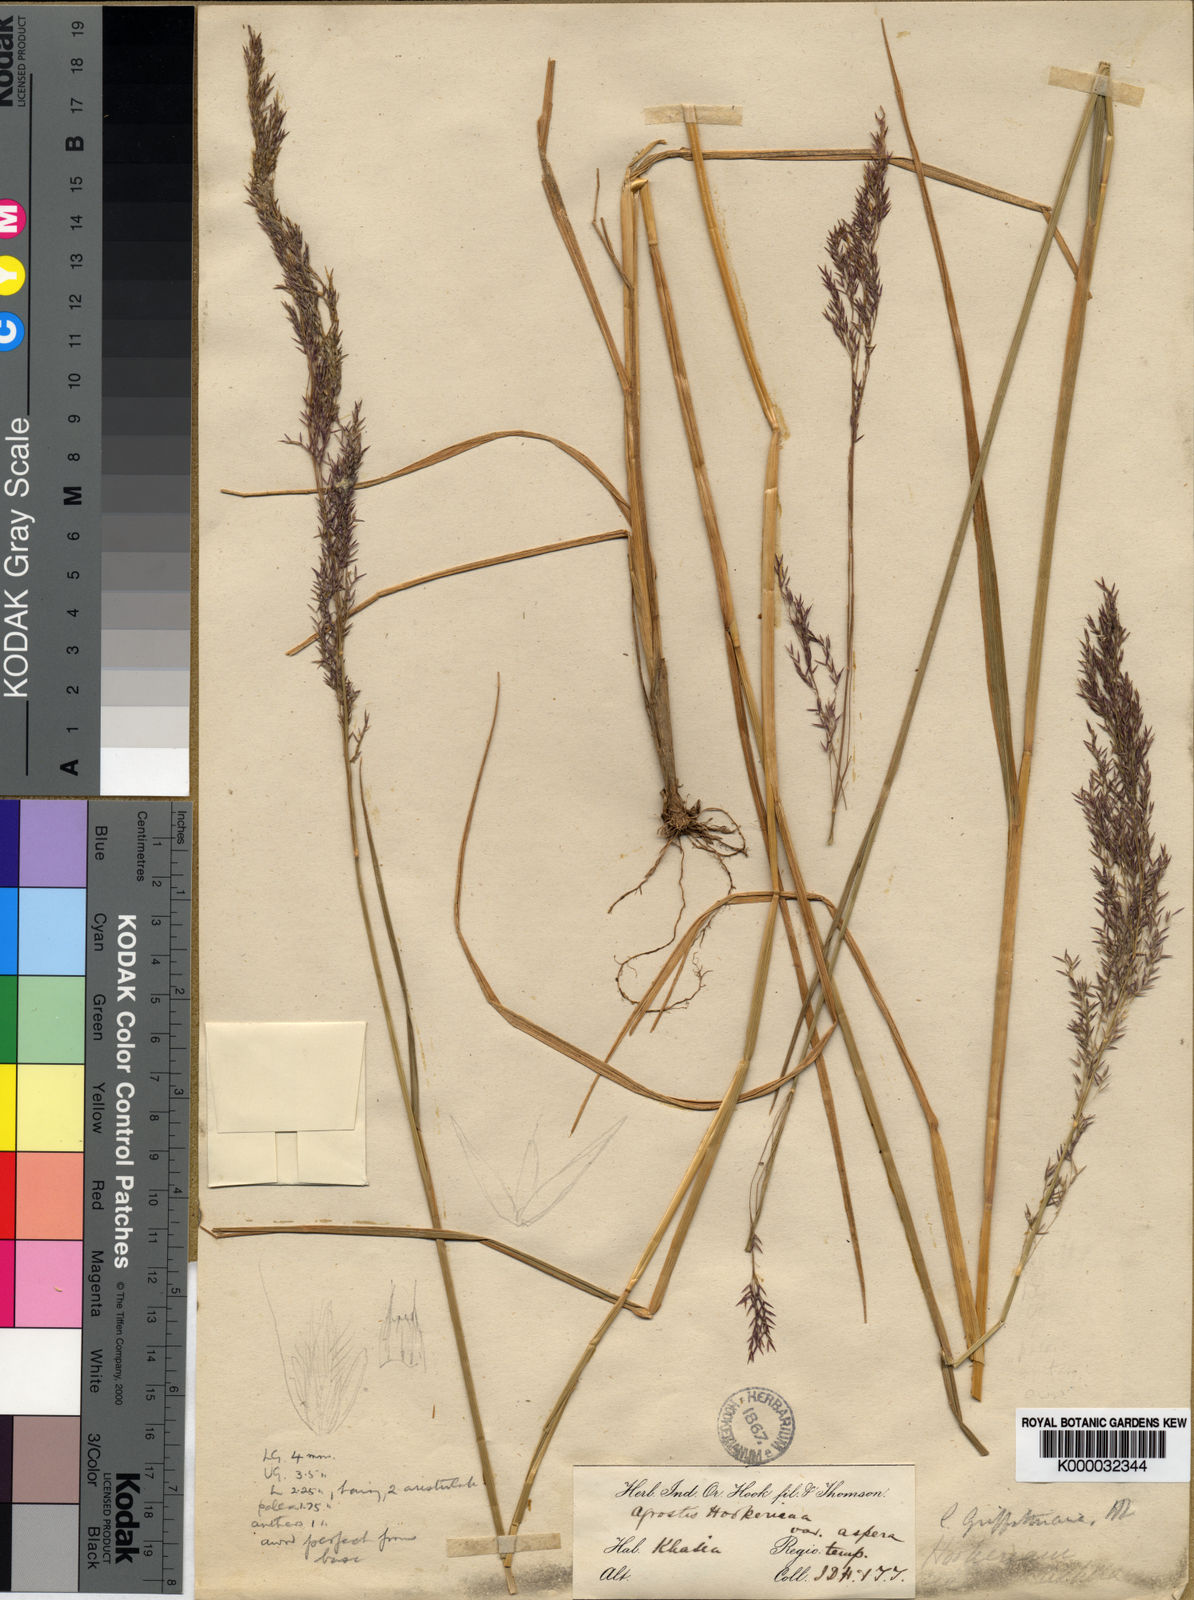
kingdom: Plantae
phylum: Tracheophyta
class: Liliopsida
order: Poales
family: Poaceae
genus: Agrostis
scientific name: Agrostis griffithiana
